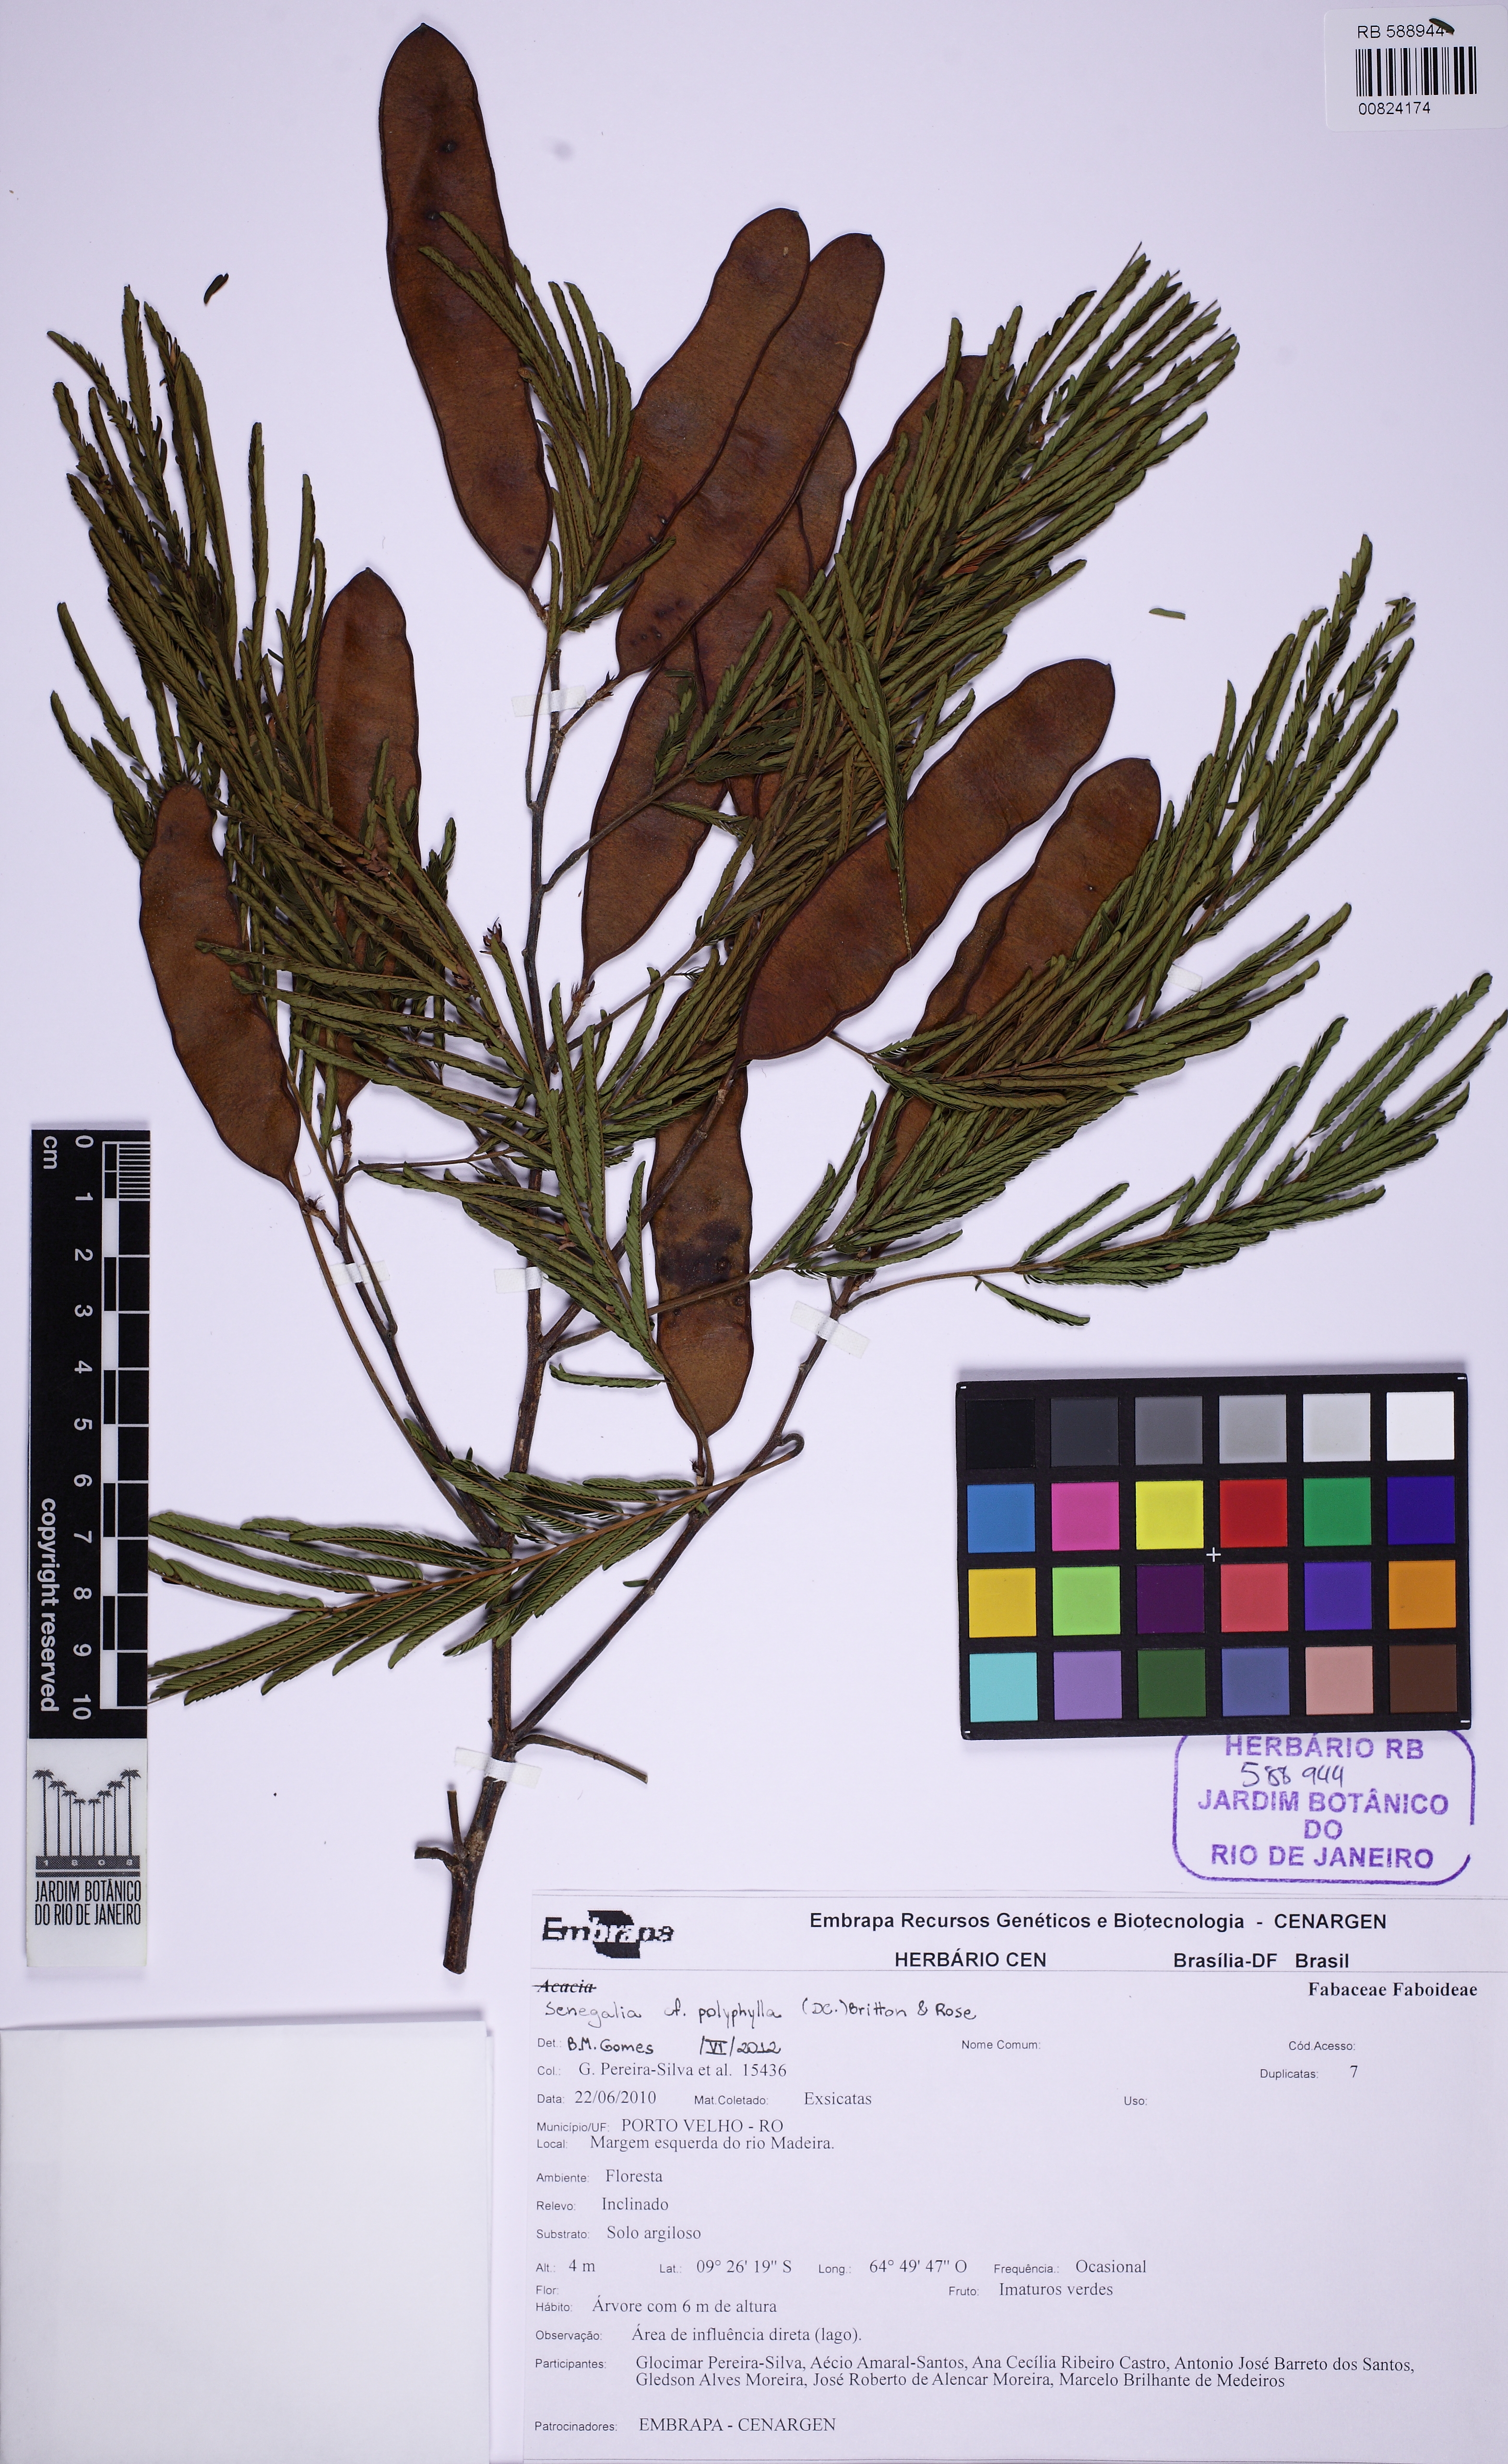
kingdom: Plantae
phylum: Tracheophyta
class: Magnoliopsida
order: Fabales
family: Fabaceae
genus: Senegalia
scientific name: Senegalia polyphylla
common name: White-tamarind
